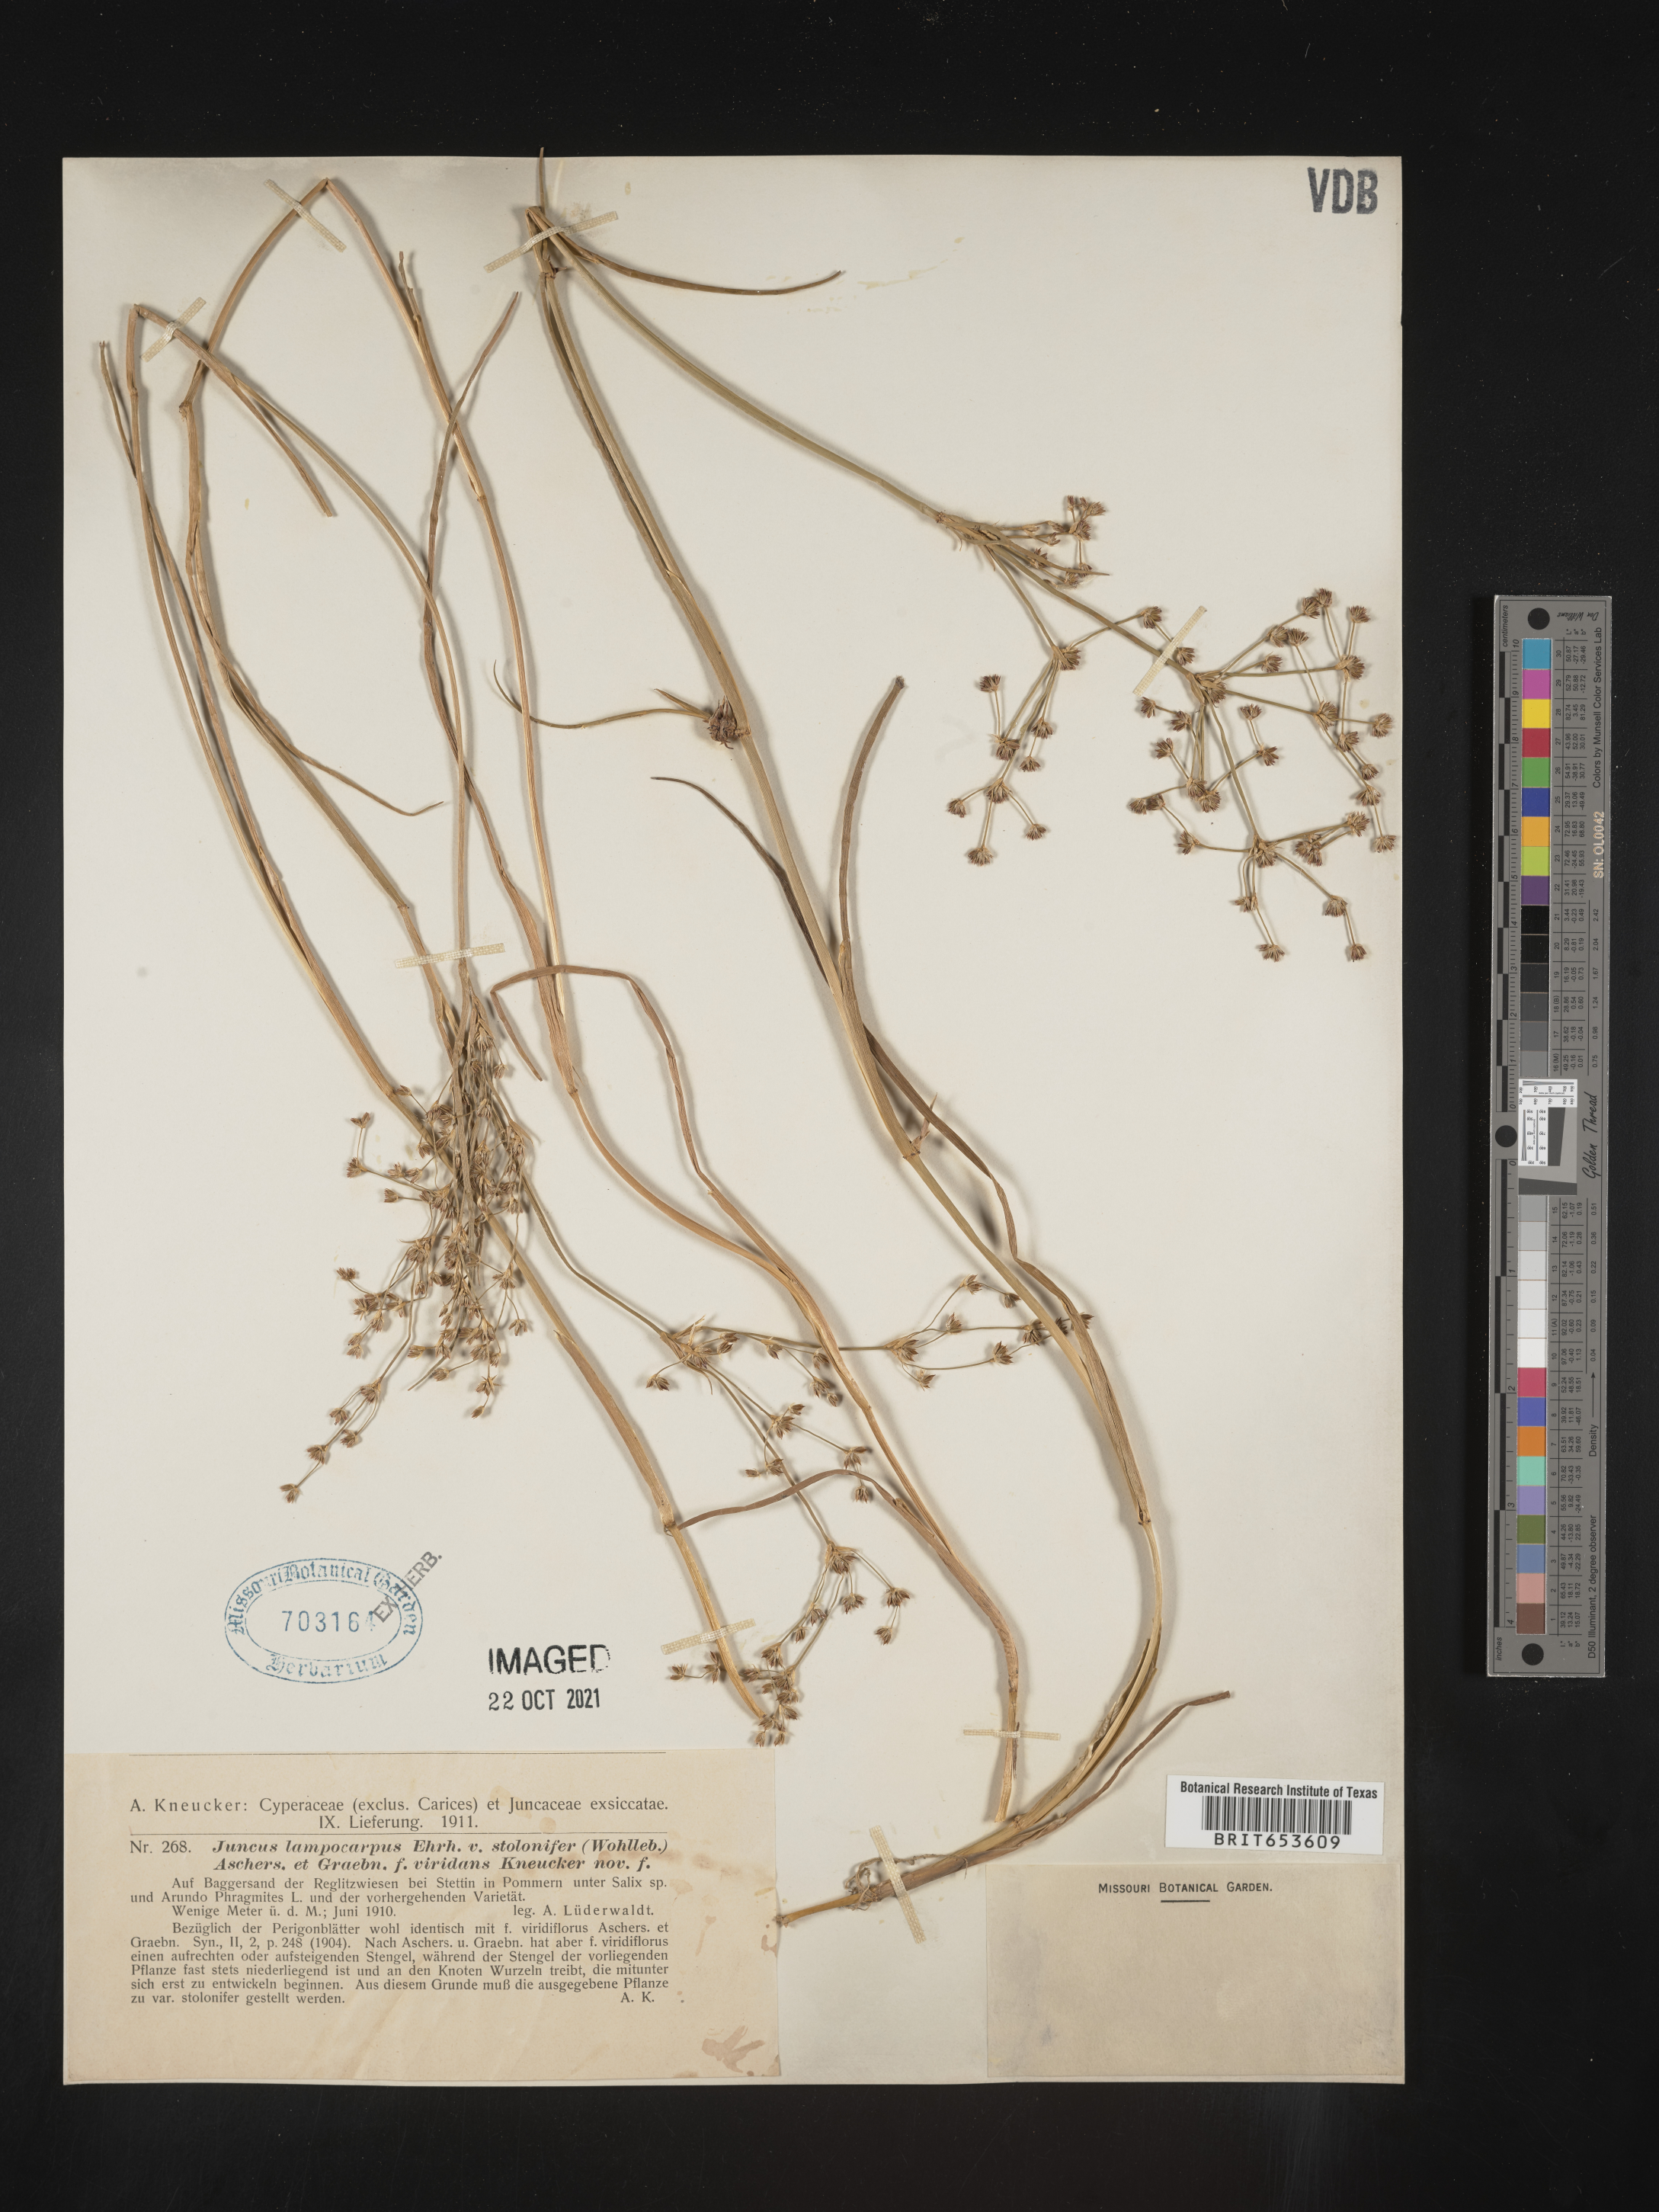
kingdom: Plantae
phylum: Tracheophyta
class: Liliopsida
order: Poales
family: Juncaceae
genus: Juncus
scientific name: Juncus
